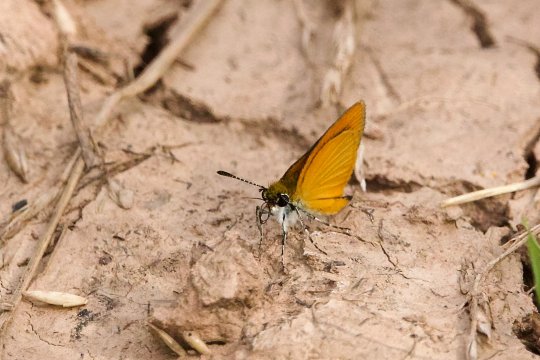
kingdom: Animalia
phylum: Arthropoda
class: Insecta
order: Lepidoptera
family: Hesperiidae
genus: Ancyloxypha
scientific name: Ancyloxypha numitor
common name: Least Skipper
